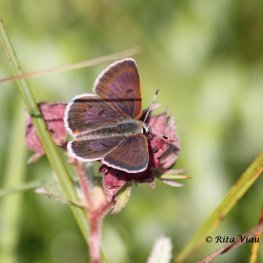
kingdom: Animalia
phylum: Arthropoda
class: Insecta
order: Lepidoptera
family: Sesiidae
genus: Sesia
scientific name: Sesia Lycaena epixanthe
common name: Bog Copper
